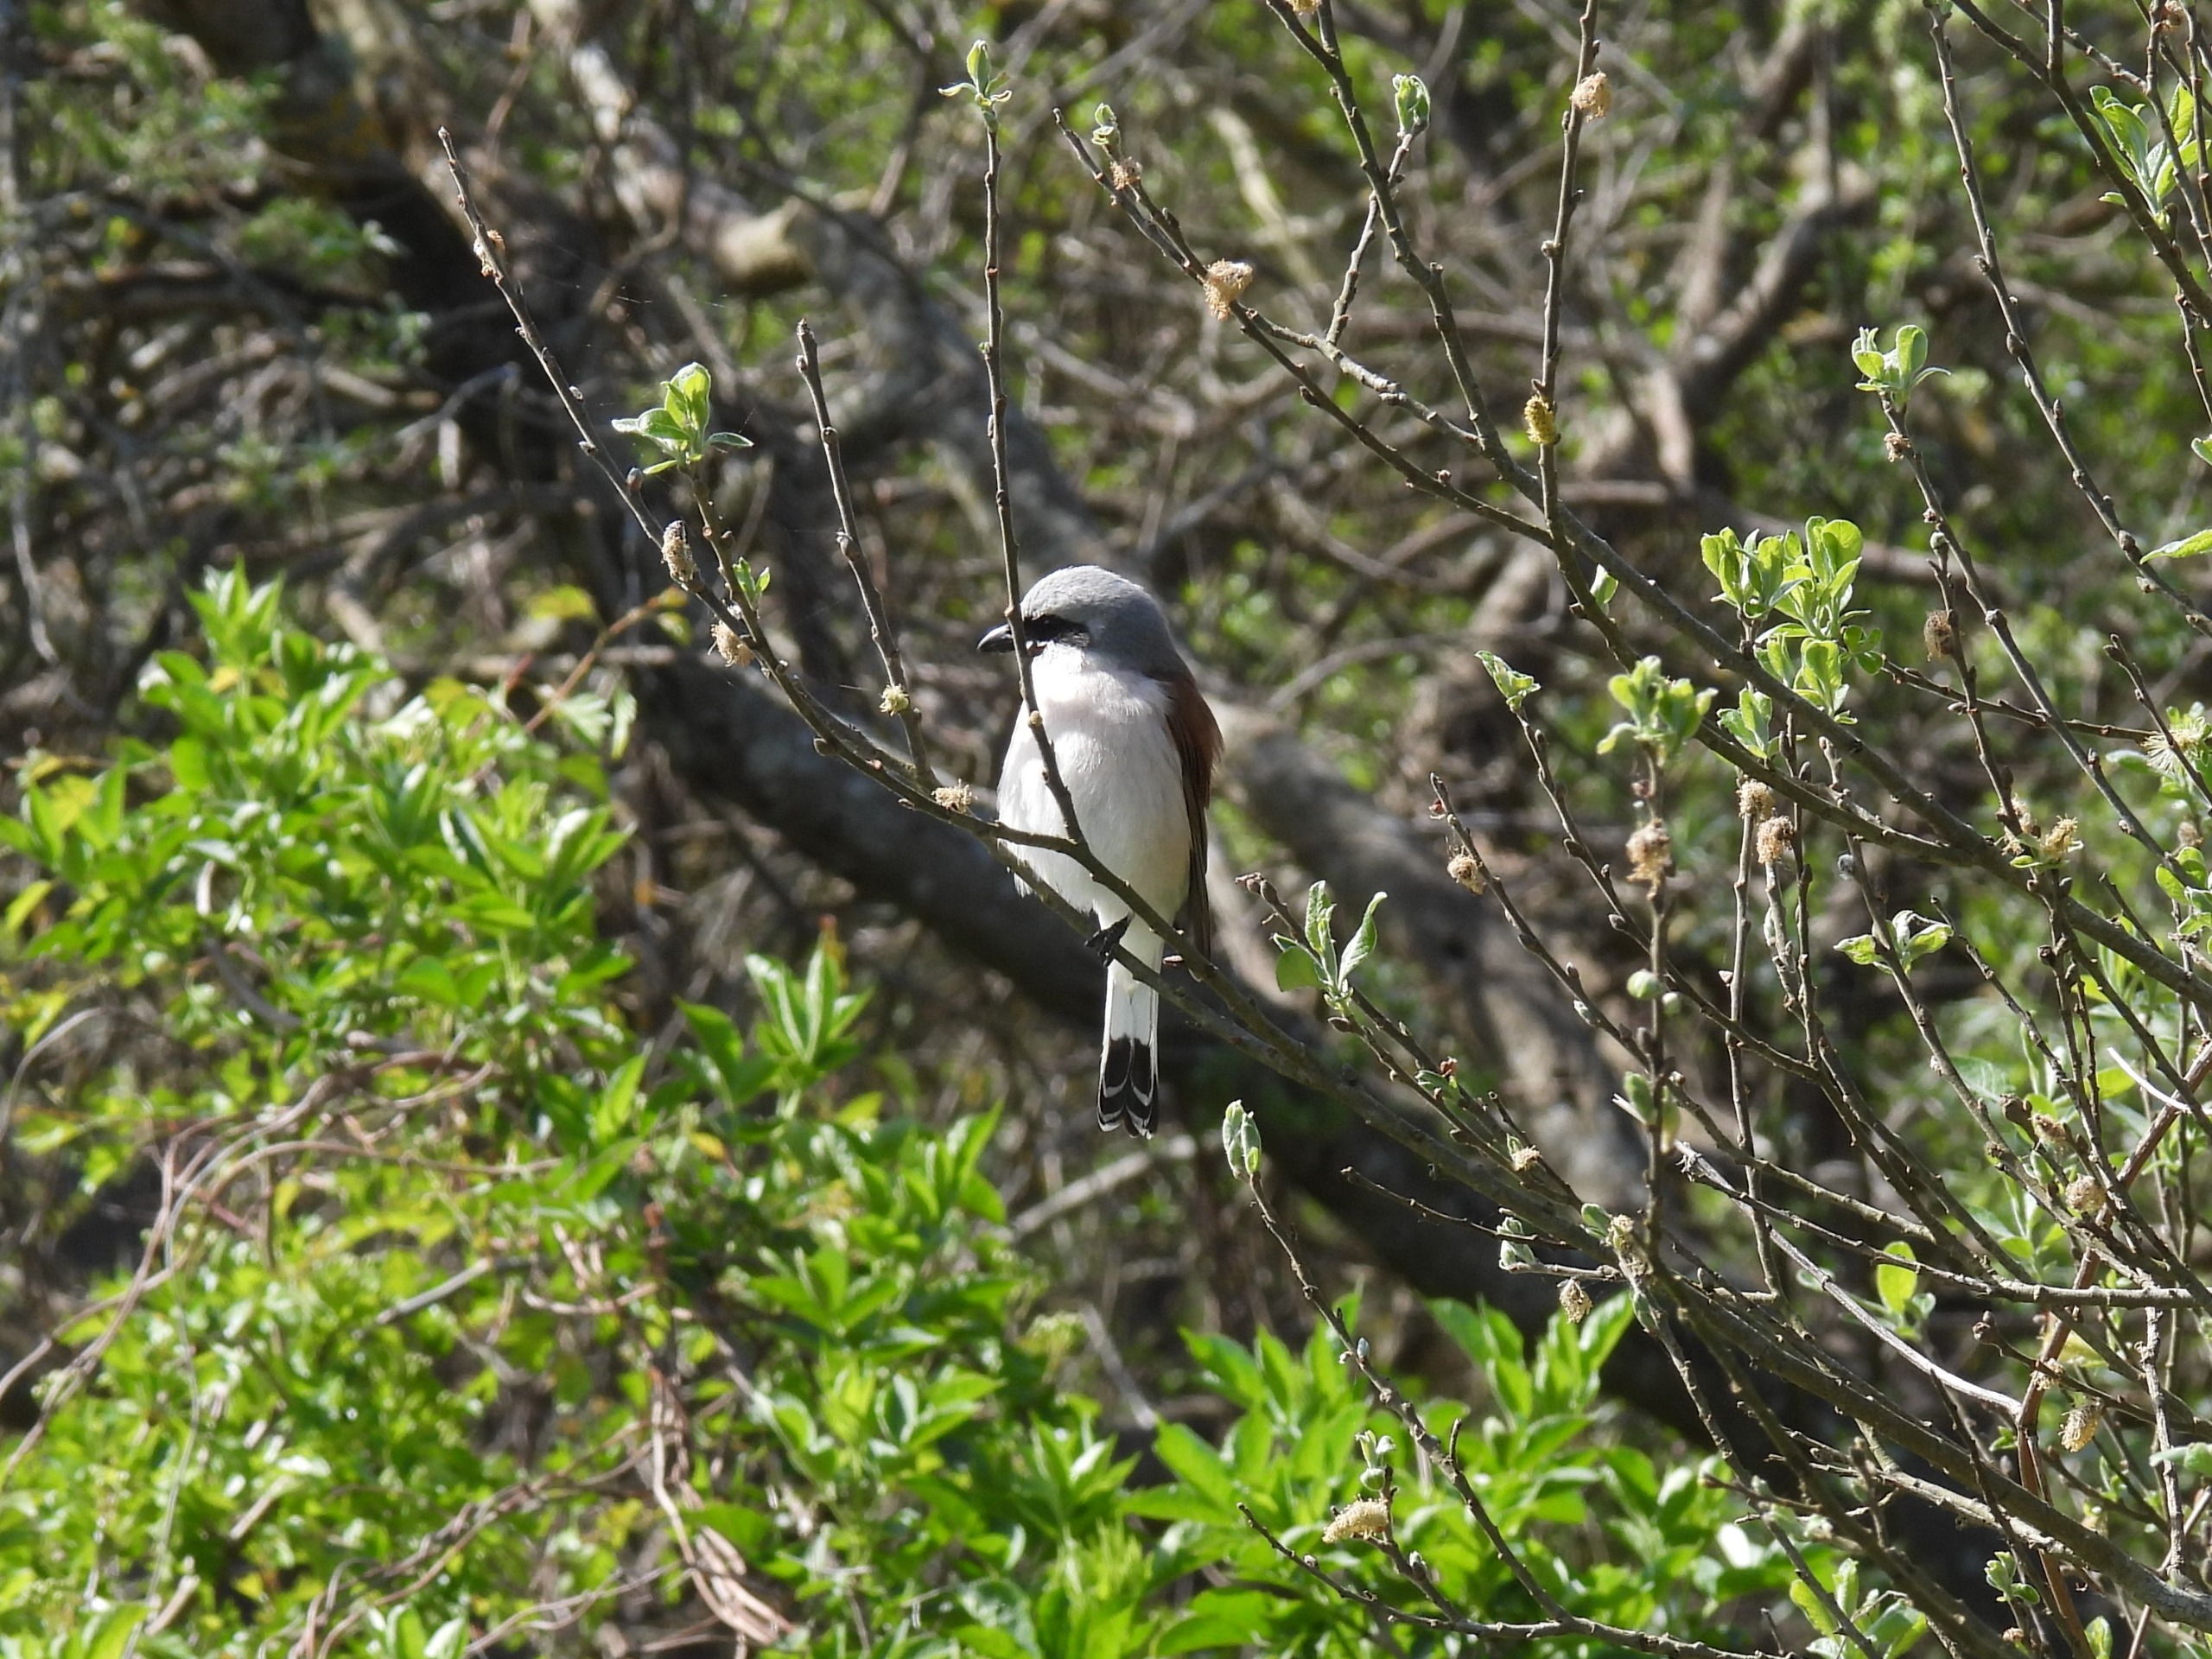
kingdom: Animalia
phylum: Chordata
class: Aves
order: Passeriformes
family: Laniidae
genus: Lanius
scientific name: Lanius collurio
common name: Rødrygget tornskade
